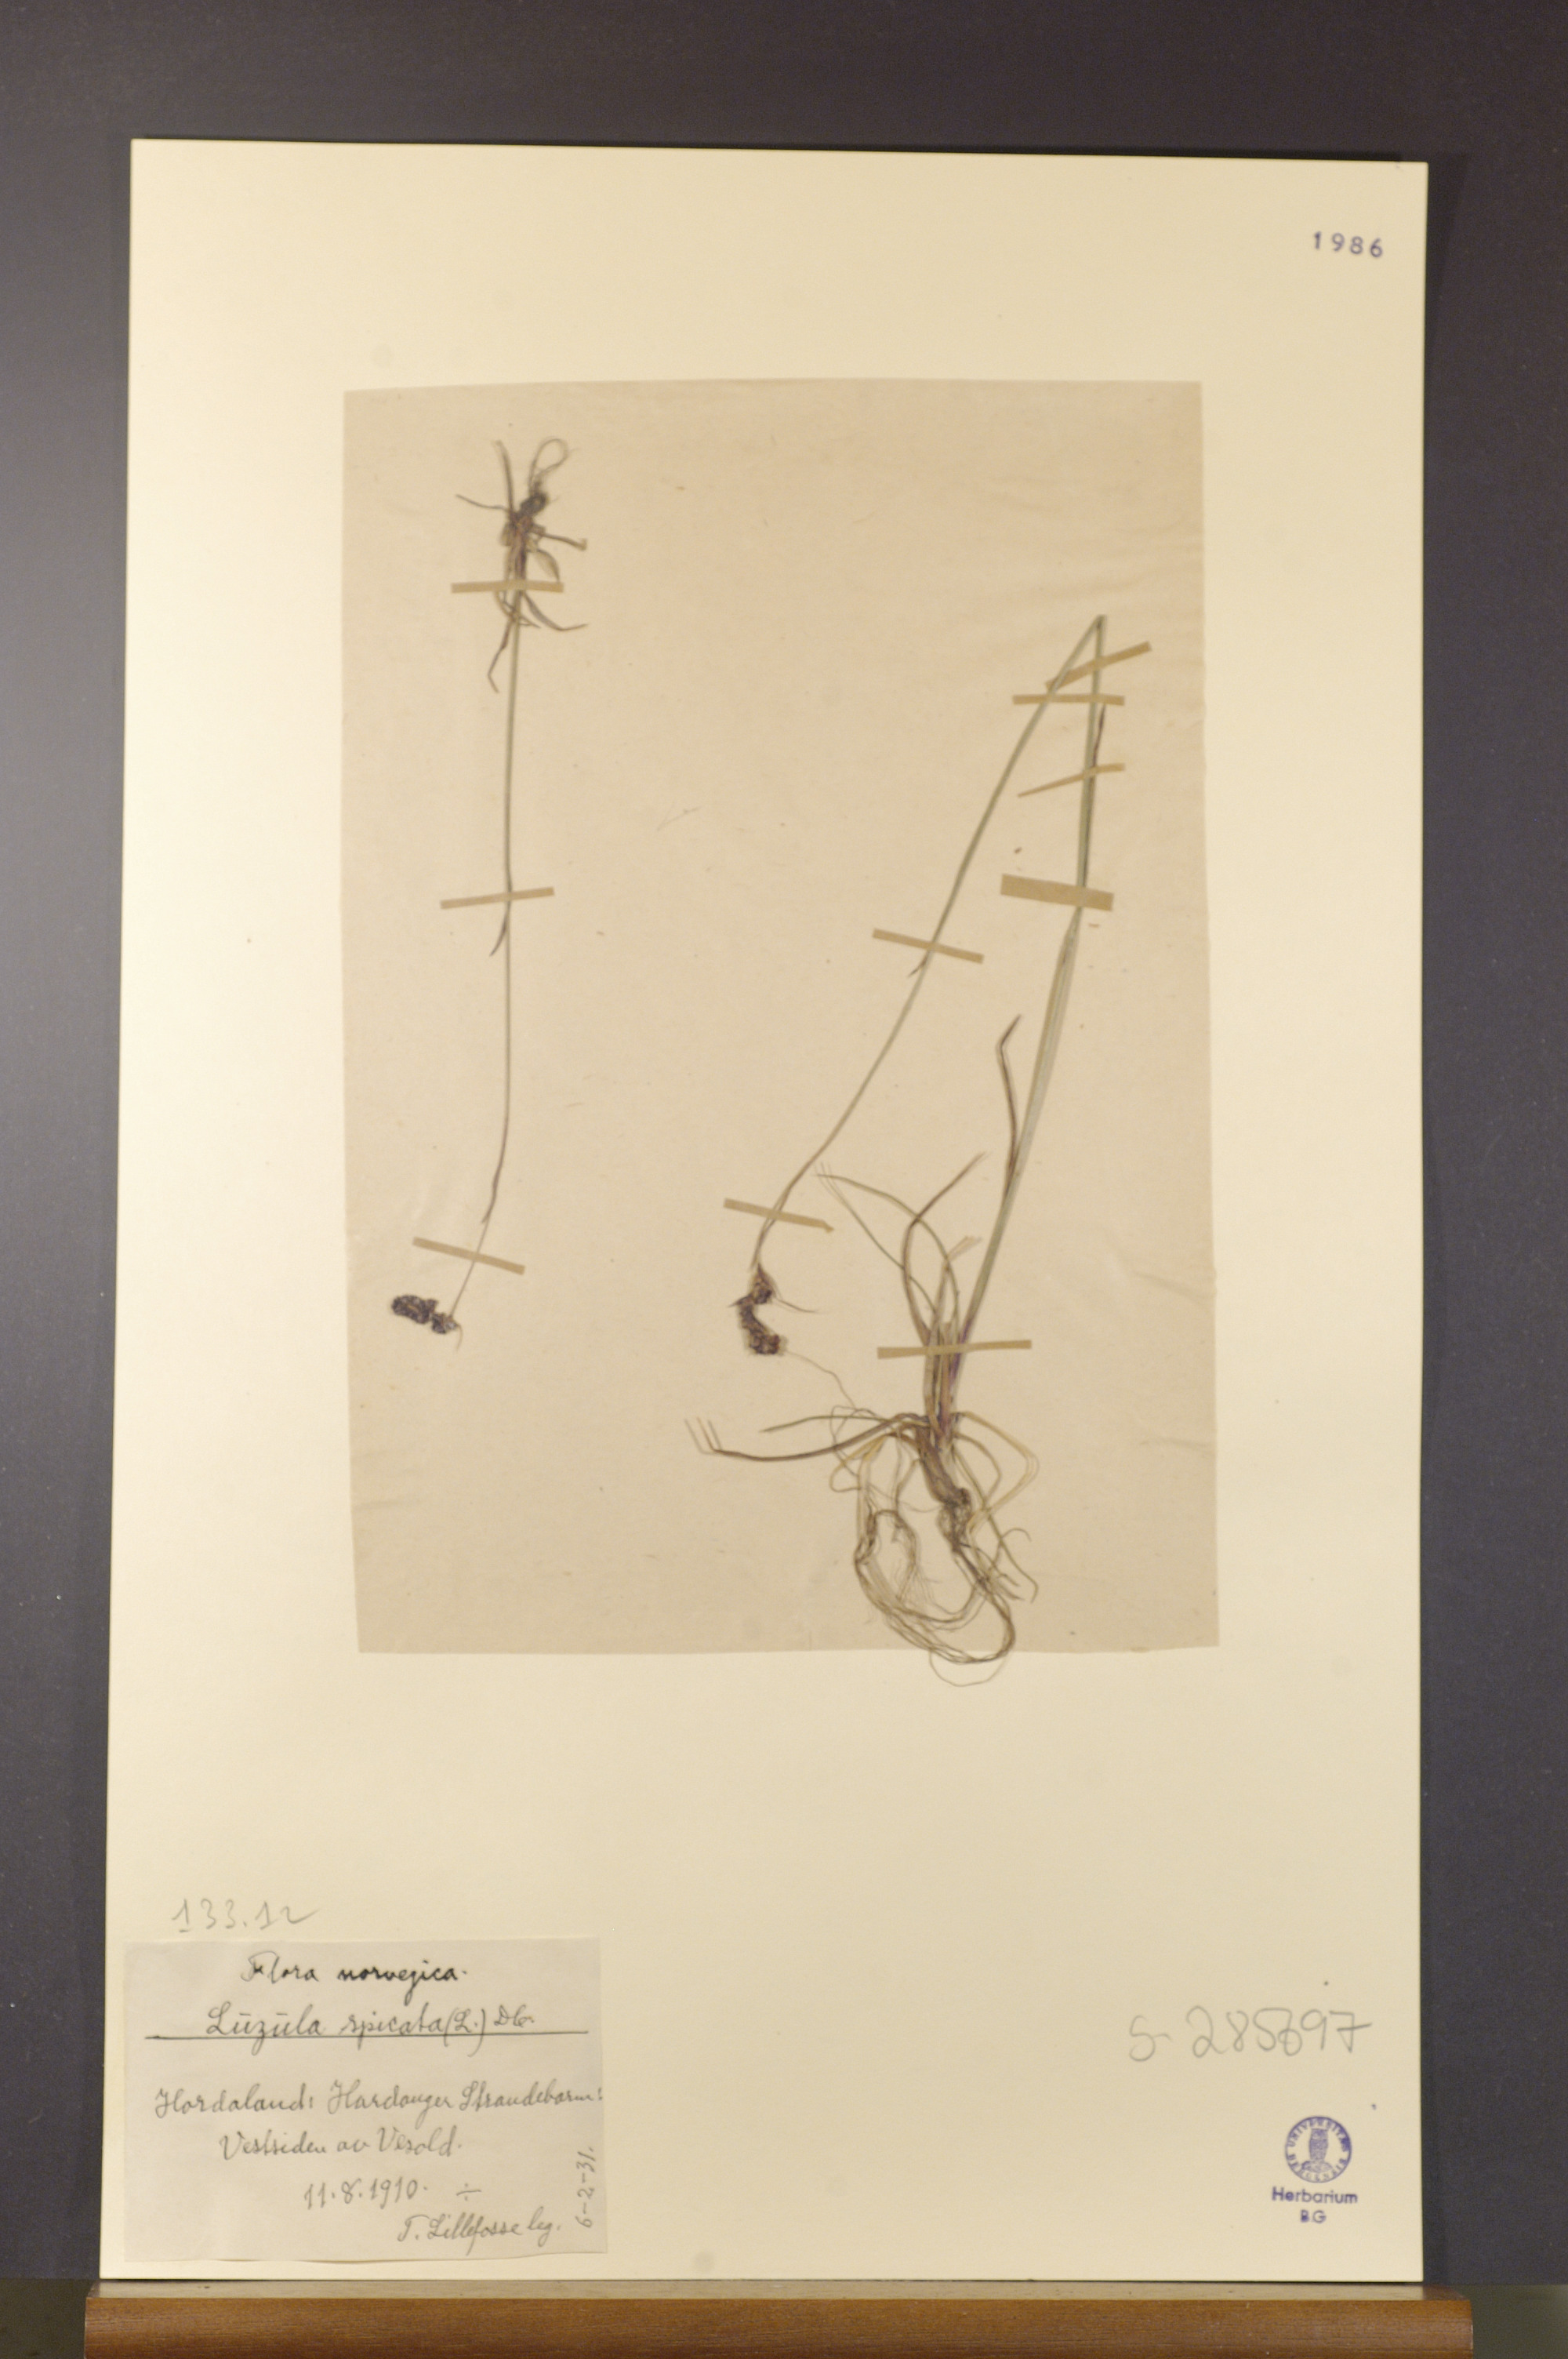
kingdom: Plantae
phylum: Tracheophyta
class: Liliopsida
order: Poales
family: Juncaceae
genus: Luzula
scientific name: Luzula spicata
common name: Spiked wood-rush
